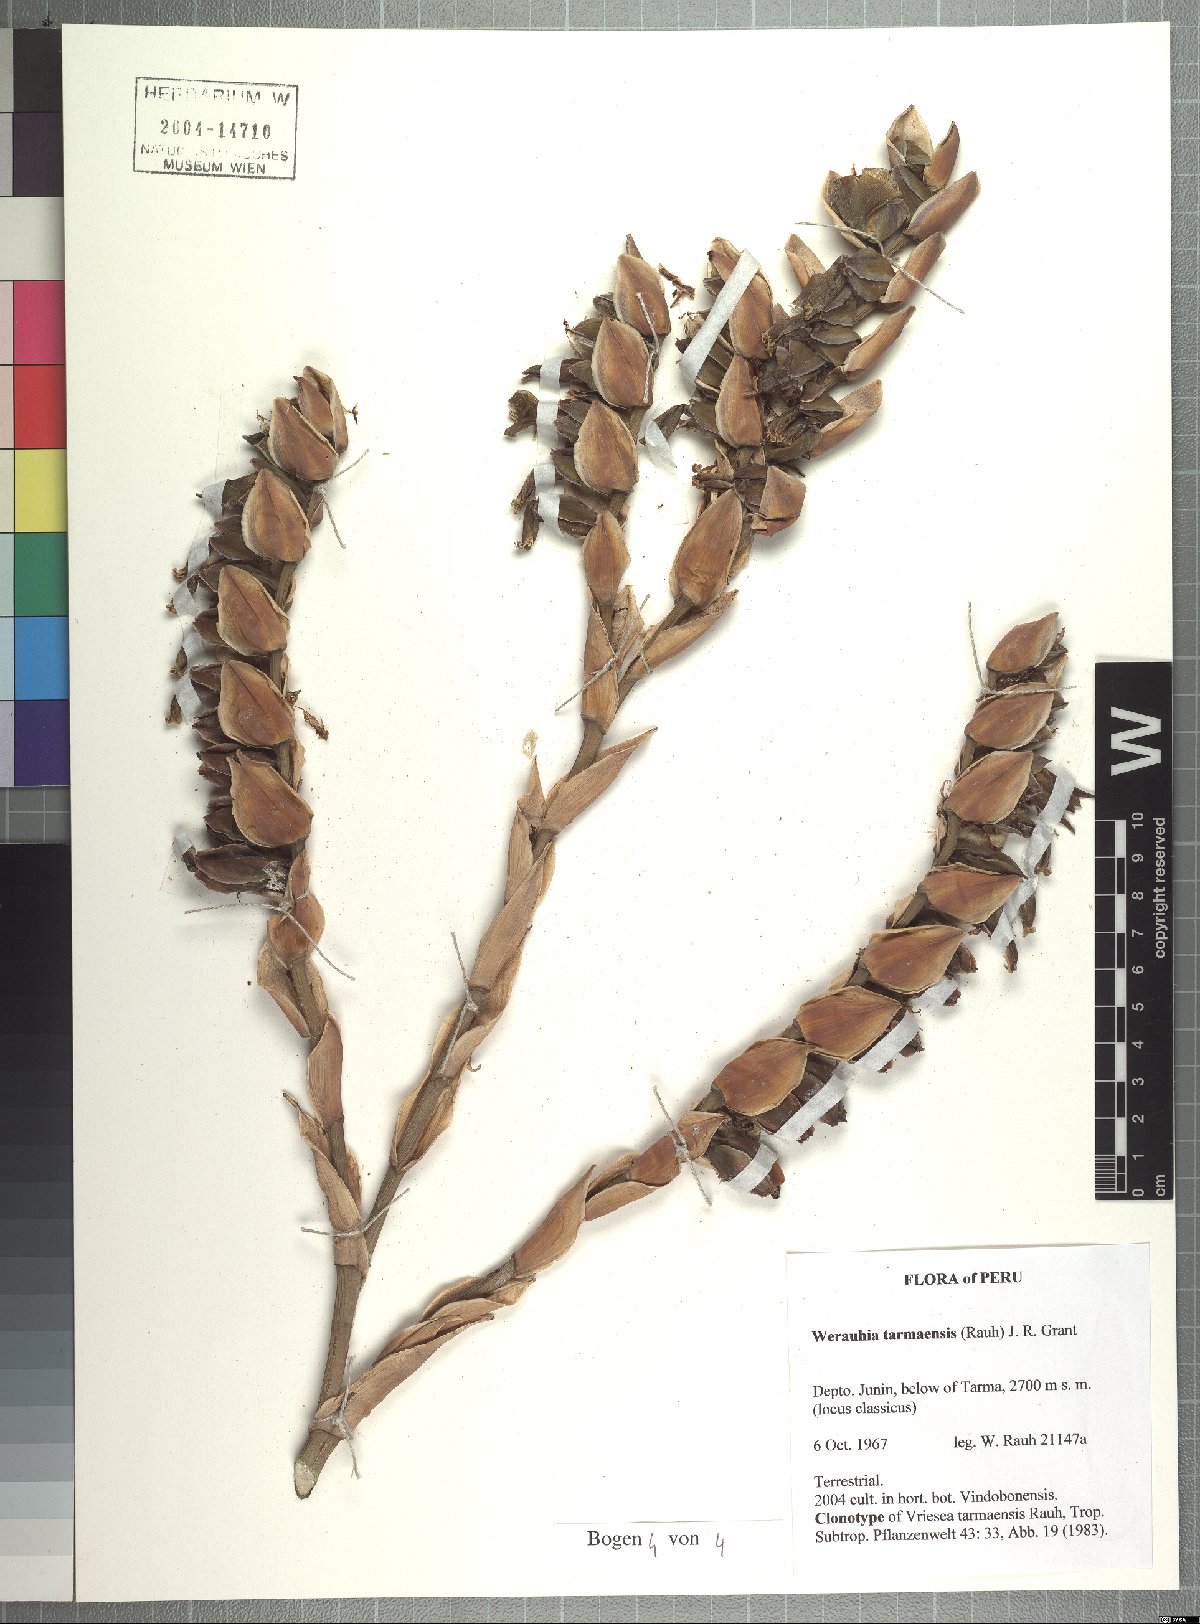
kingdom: Plantae
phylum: Tracheophyta
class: Liliopsida
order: Poales
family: Bromeliaceae
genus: Werauhia
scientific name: Werauhia tarmaensis
